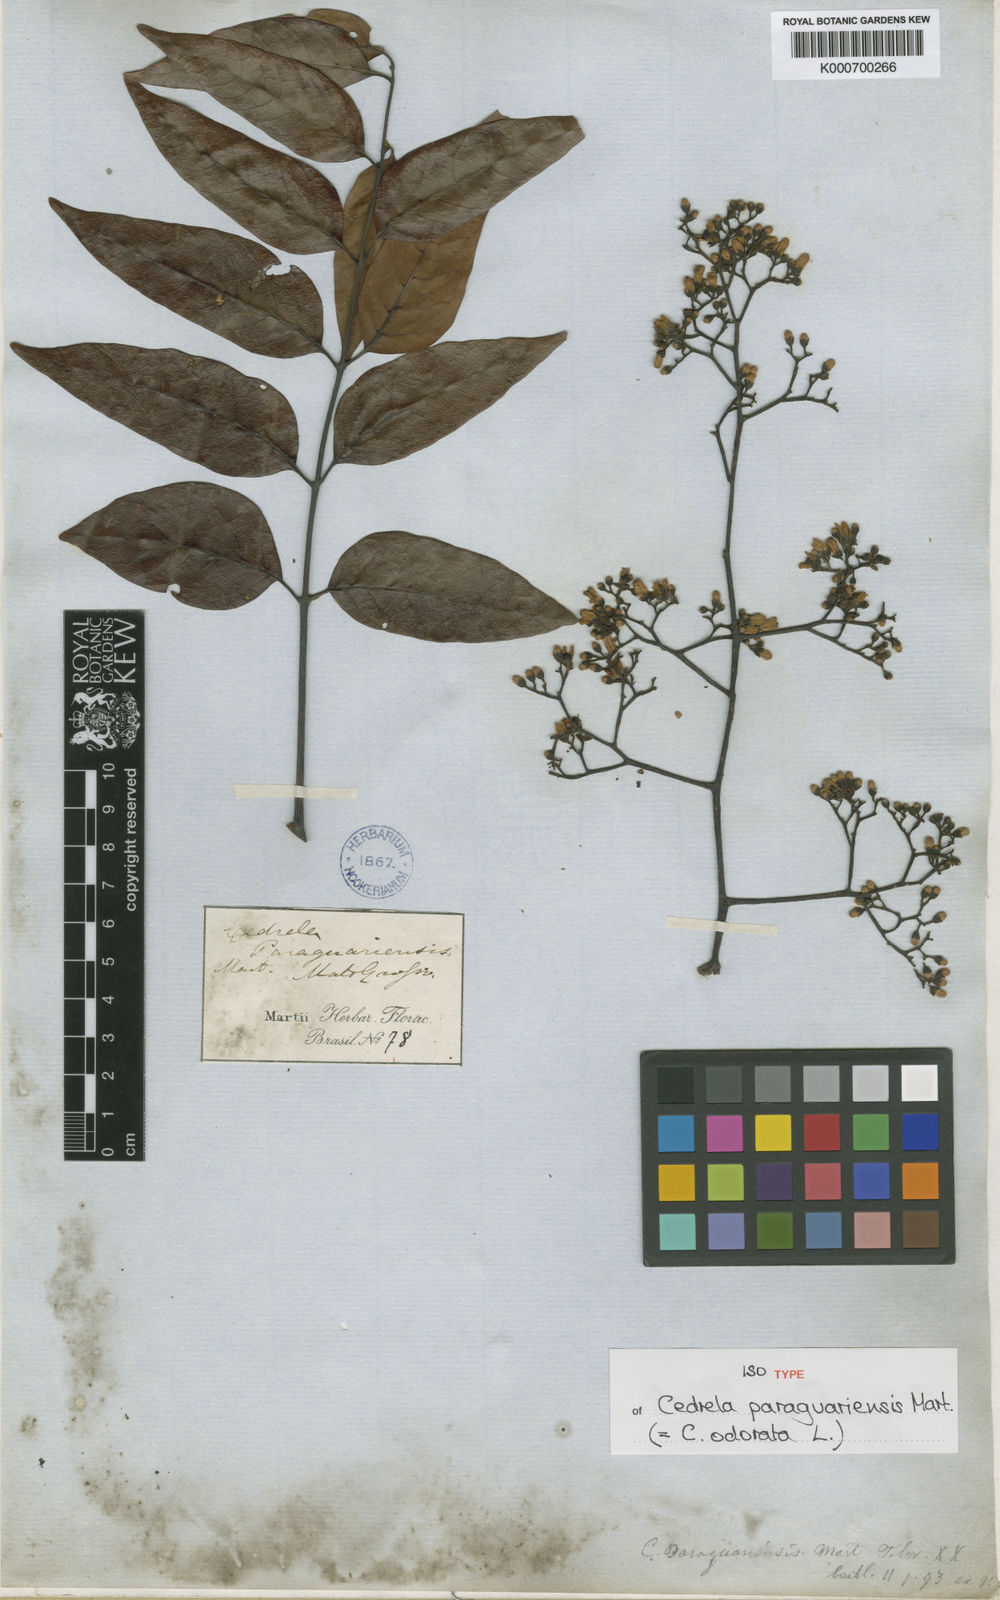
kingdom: Plantae
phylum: Tracheophyta
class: Magnoliopsida
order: Sapindales
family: Meliaceae
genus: Cedrela
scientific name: Cedrela odorata
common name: Red cedar
